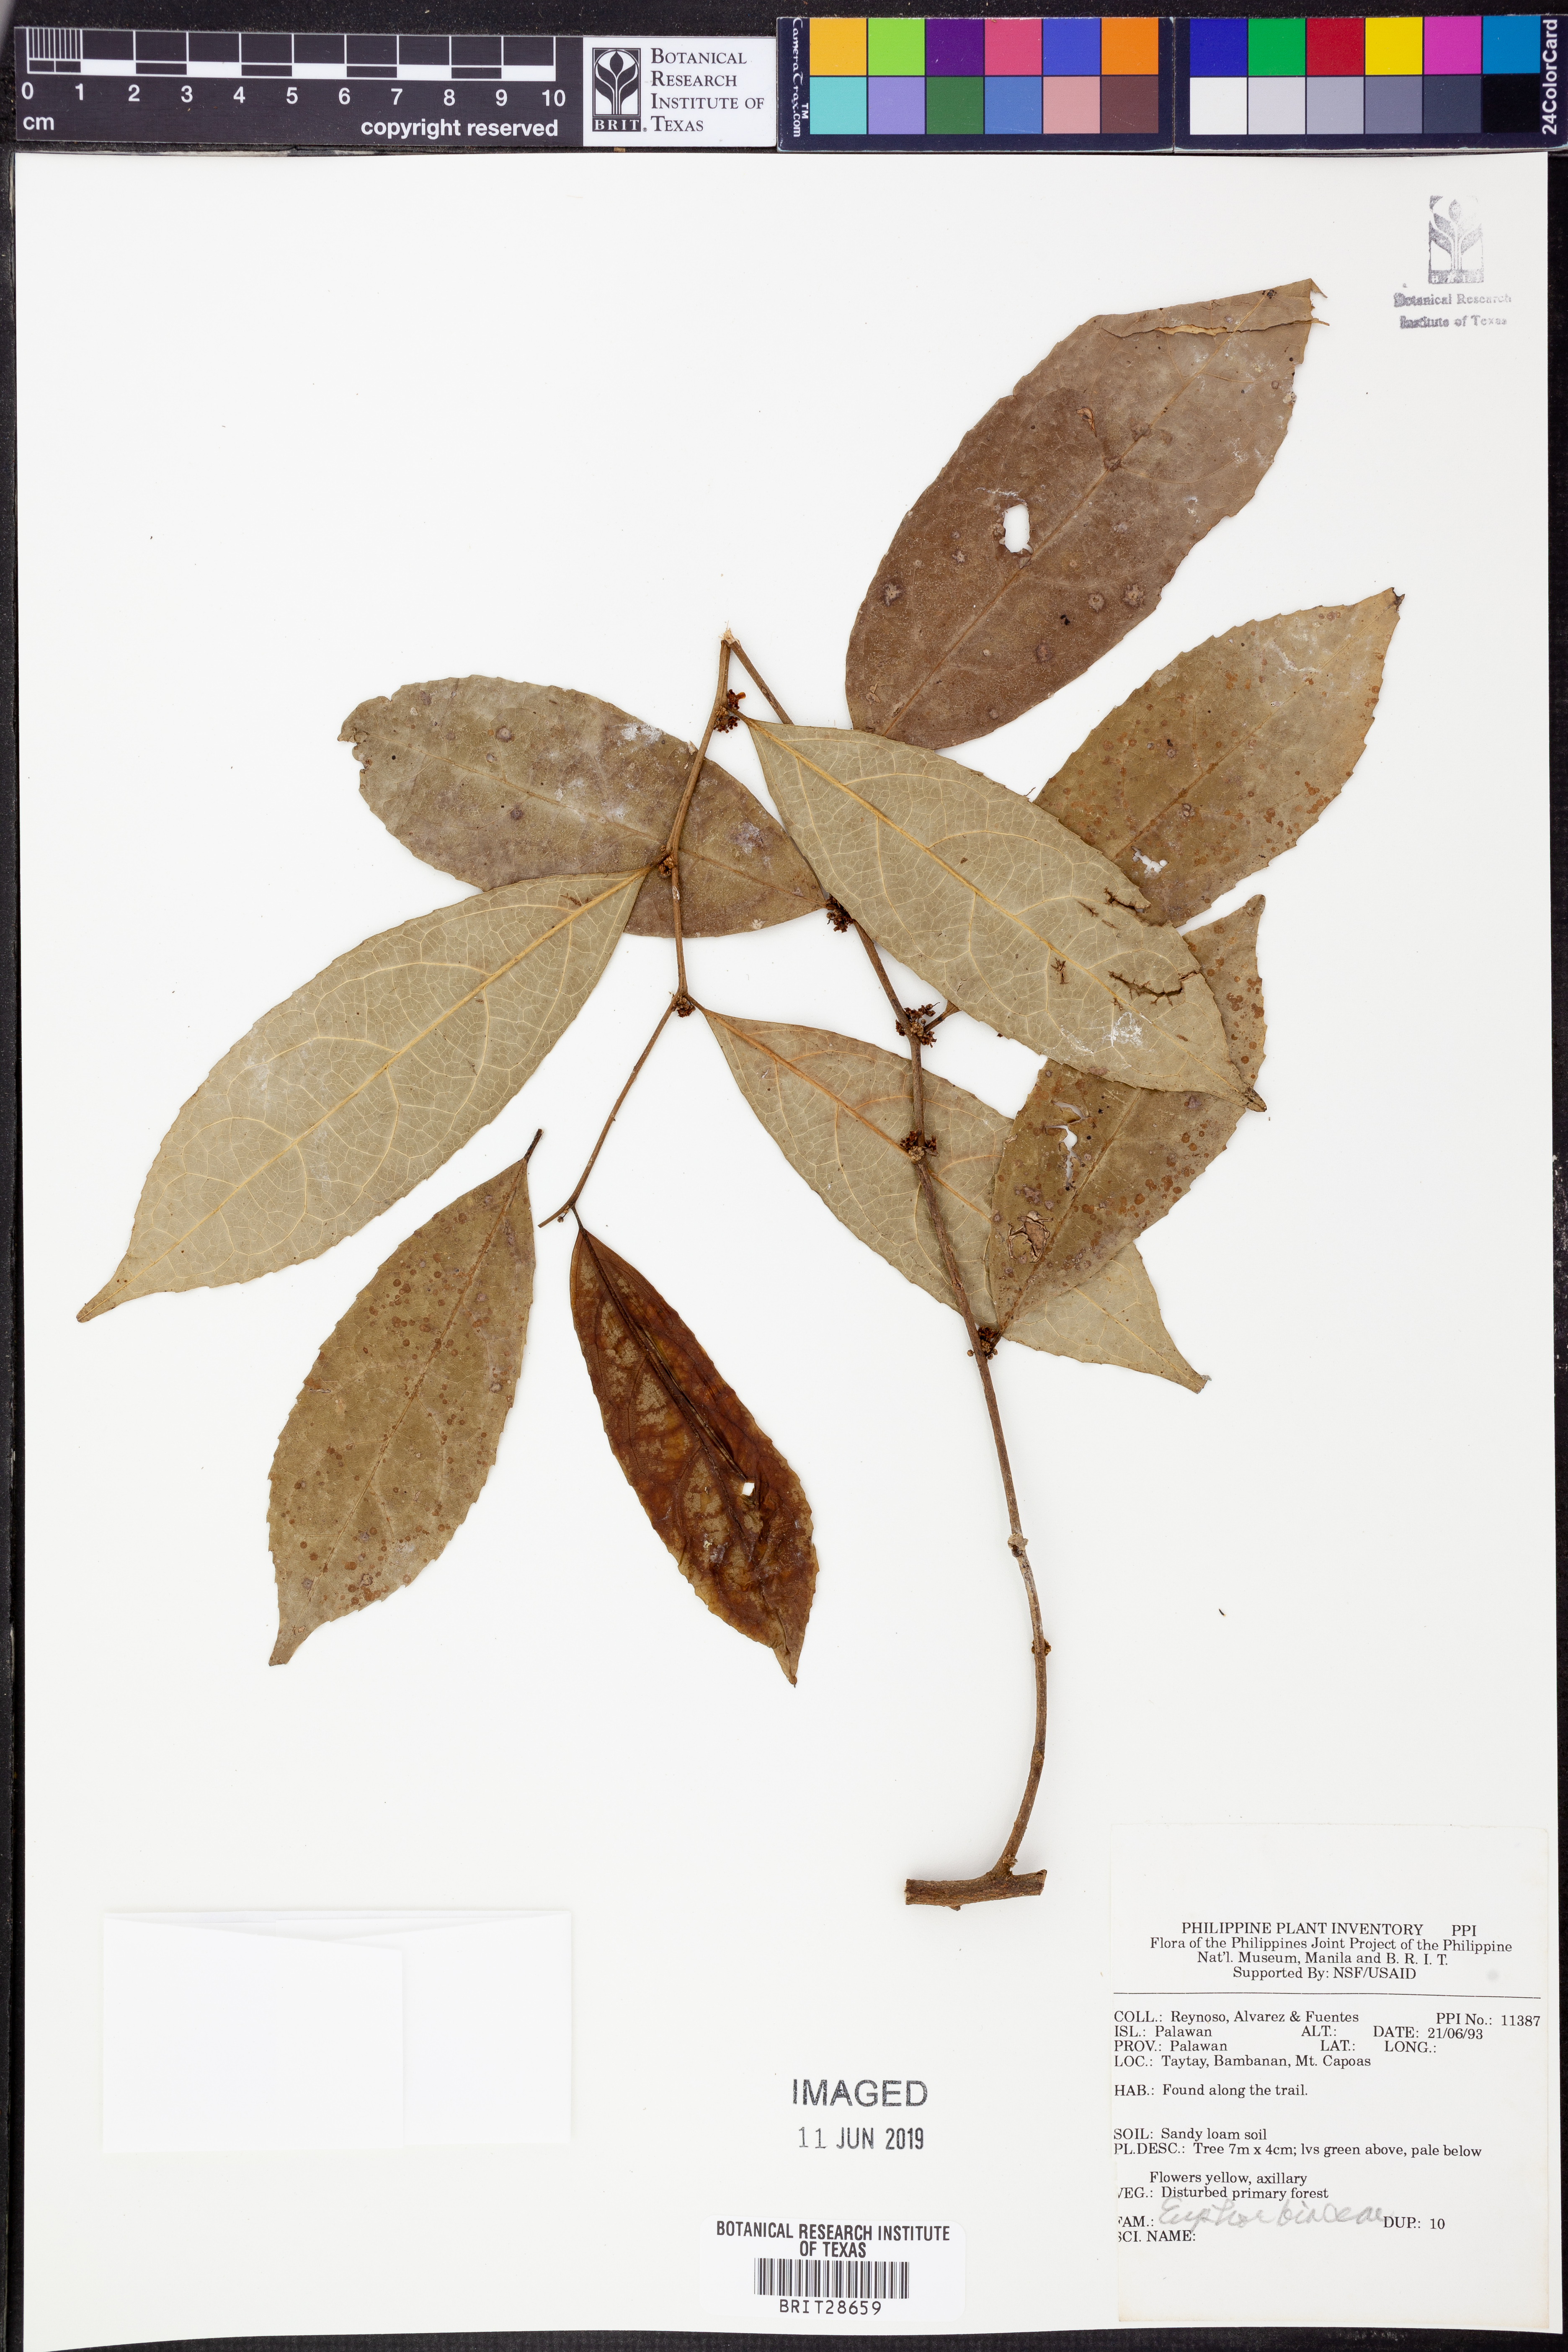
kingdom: Plantae
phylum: Tracheophyta
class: Magnoliopsida
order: Malpighiales
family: Euphorbiaceae
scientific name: Euphorbiaceae
